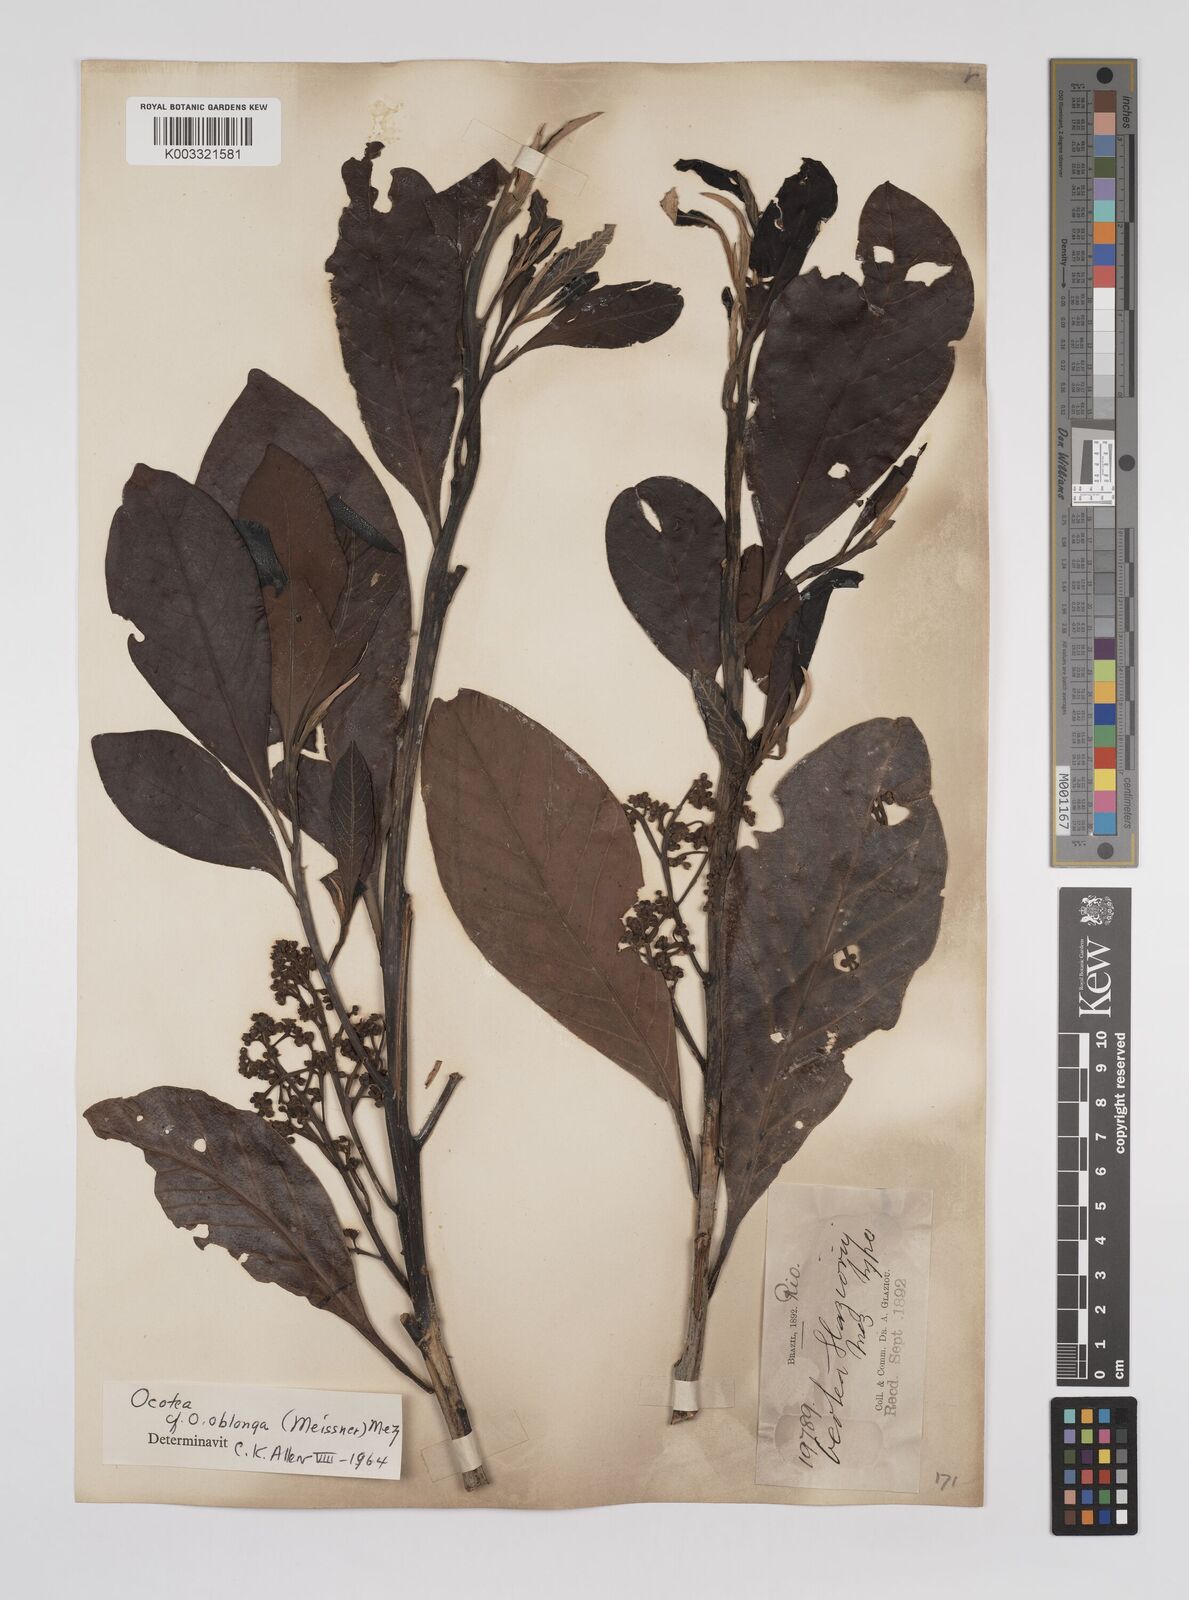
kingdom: Plantae
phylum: Tracheophyta
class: Magnoliopsida
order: Laurales
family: Lauraceae
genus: Ocotea
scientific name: Ocotea oblonga
